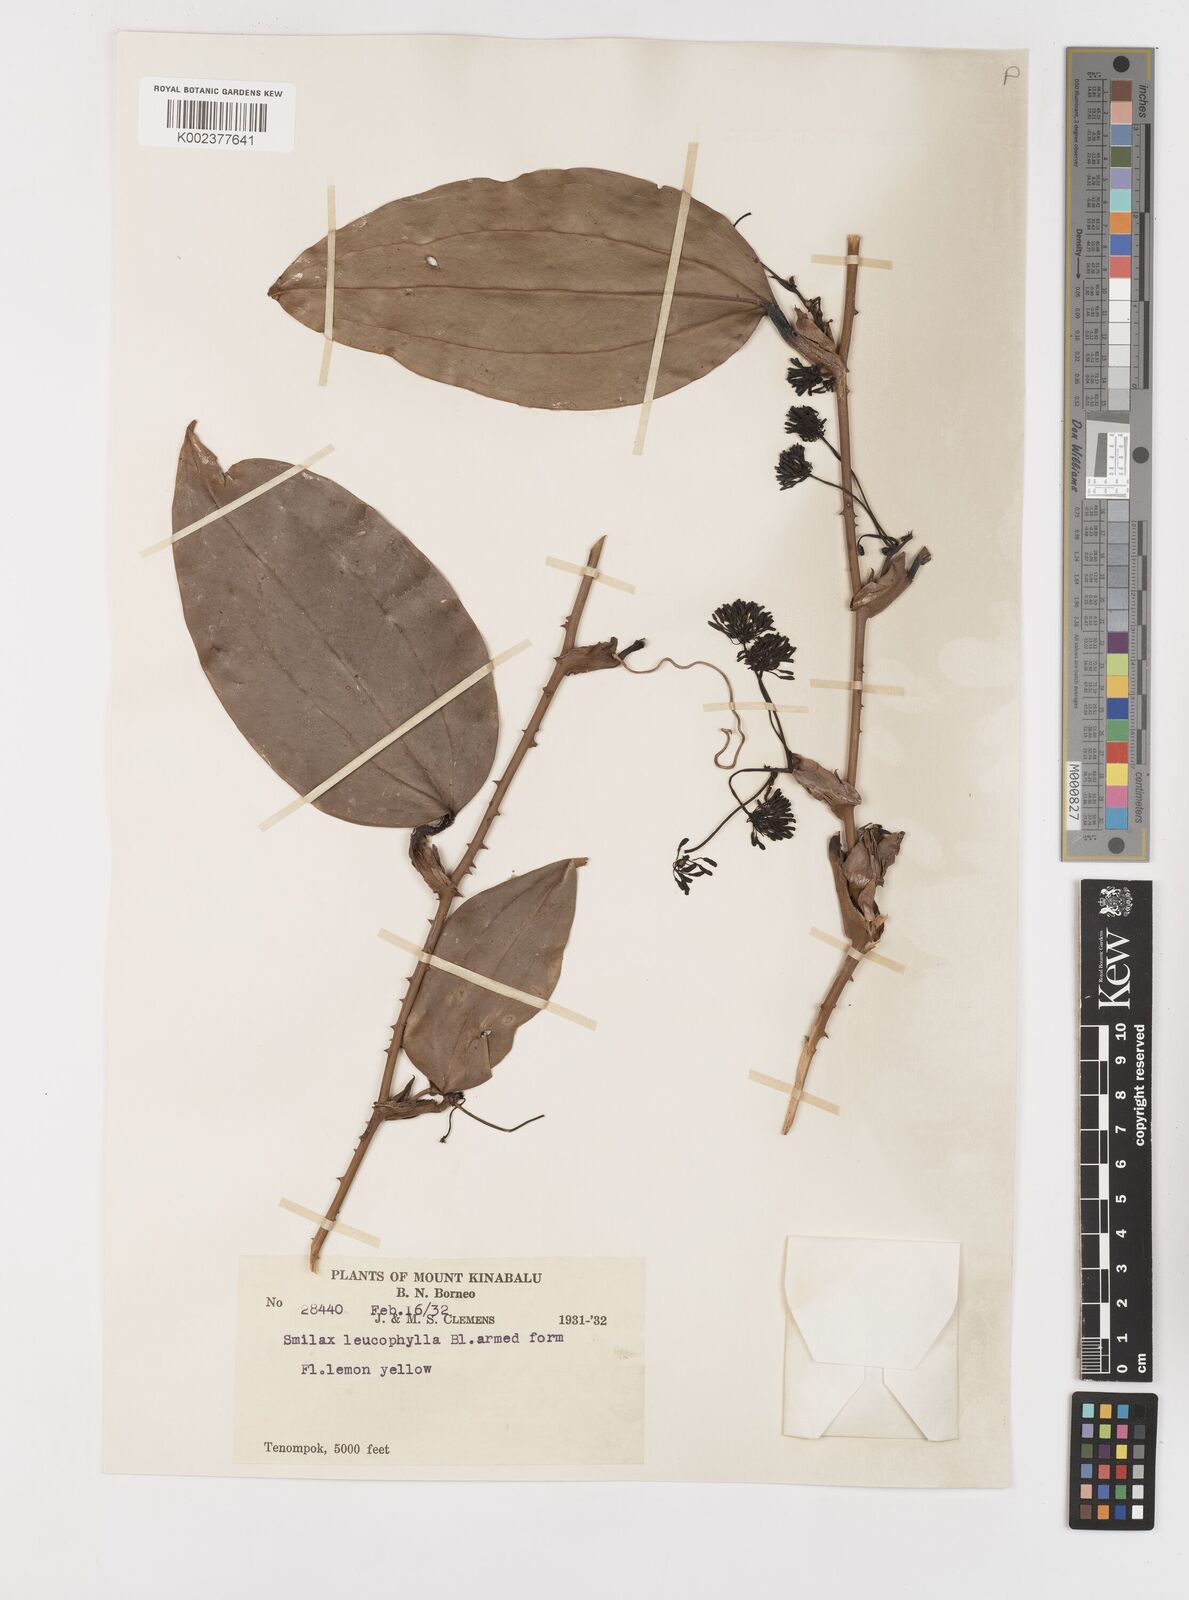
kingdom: Plantae
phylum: Tracheophyta
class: Liliopsida
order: Liliales
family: Smilacaceae
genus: Smilax
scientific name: Smilax leucophylla
